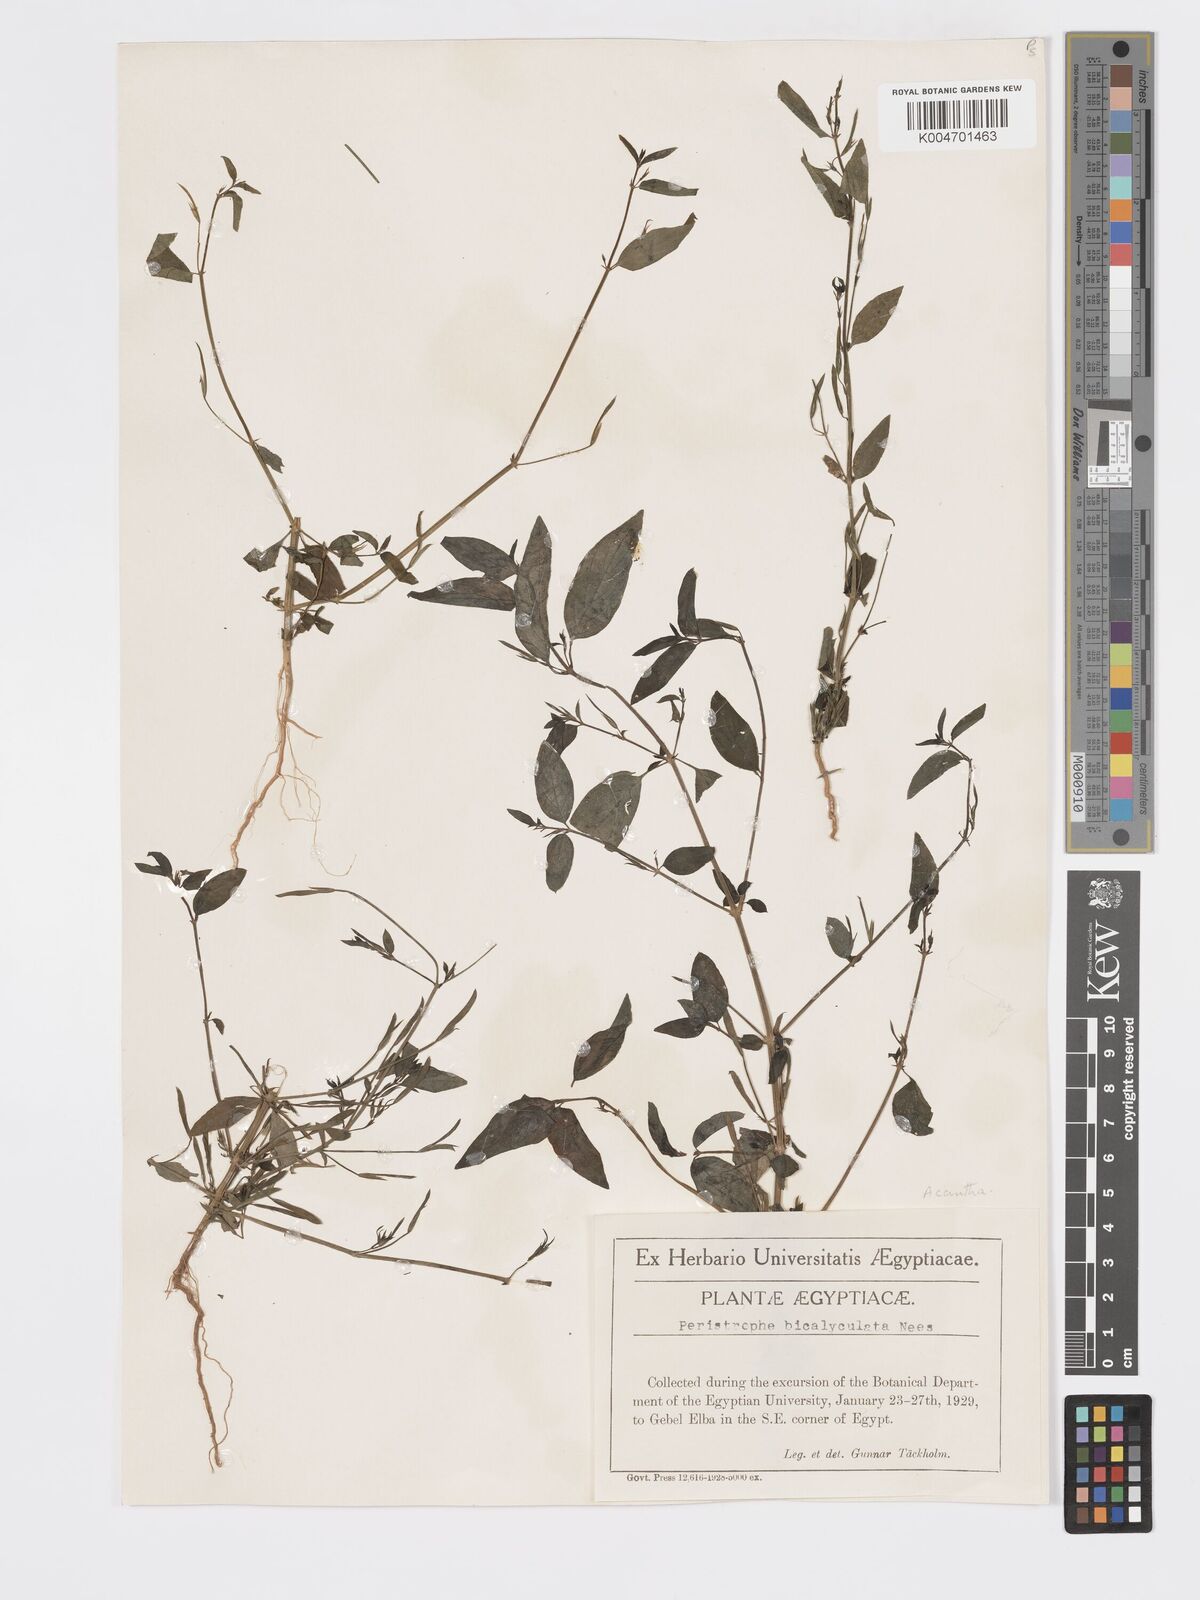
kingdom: Plantae
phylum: Tracheophyta
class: Magnoliopsida
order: Lamiales
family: Acanthaceae
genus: Dicliptera
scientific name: Dicliptera paniculata
